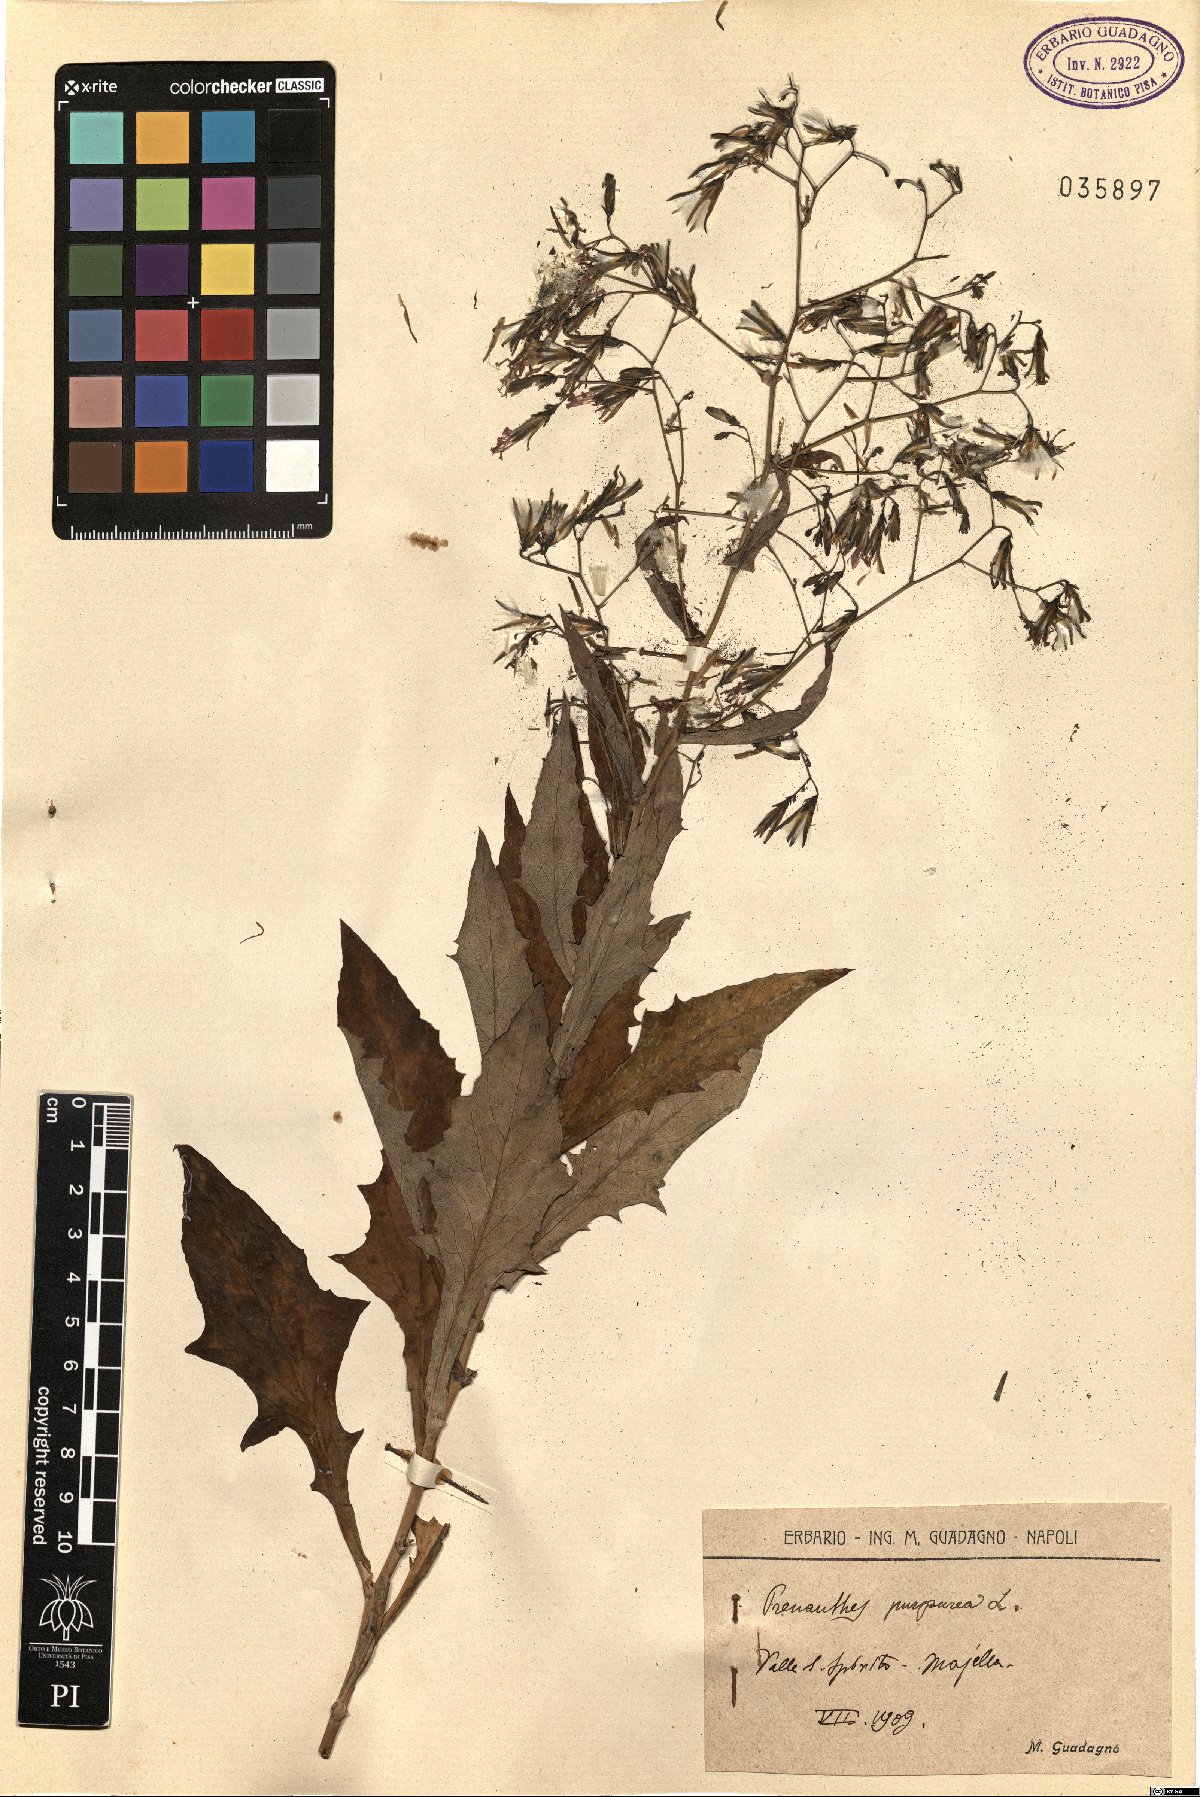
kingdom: Plantae
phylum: Tracheophyta
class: Magnoliopsida
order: Asterales
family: Asteraceae
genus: Prenanthes
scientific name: Prenanthes purpurea
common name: Purple lettuce
